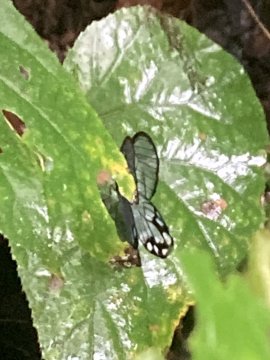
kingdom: Animalia
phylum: Arthropoda
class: Insecta
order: Lepidoptera
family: Nymphalidae
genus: Pseudohaetera
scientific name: Pseudohaetera hypaesia
